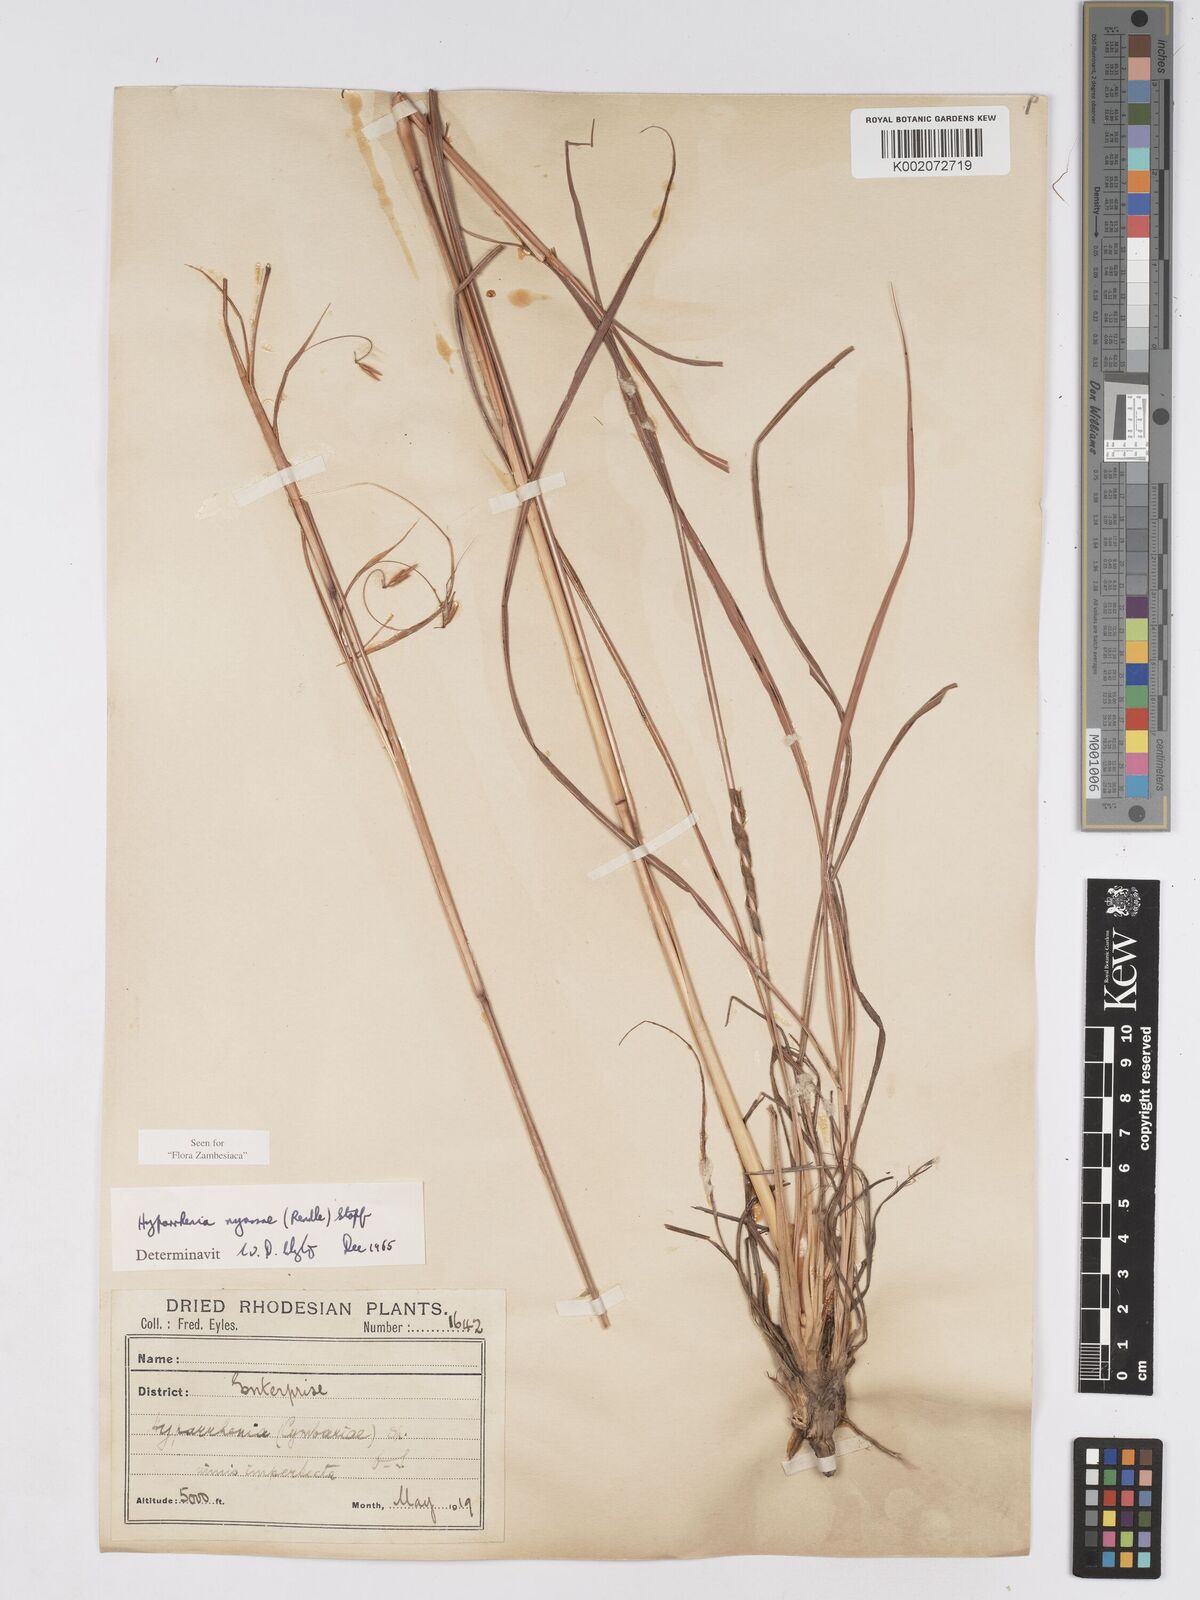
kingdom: Plantae
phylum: Tracheophyta
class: Liliopsida
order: Poales
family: Poaceae
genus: Hyparrhenia
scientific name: Hyparrhenia nyassae
